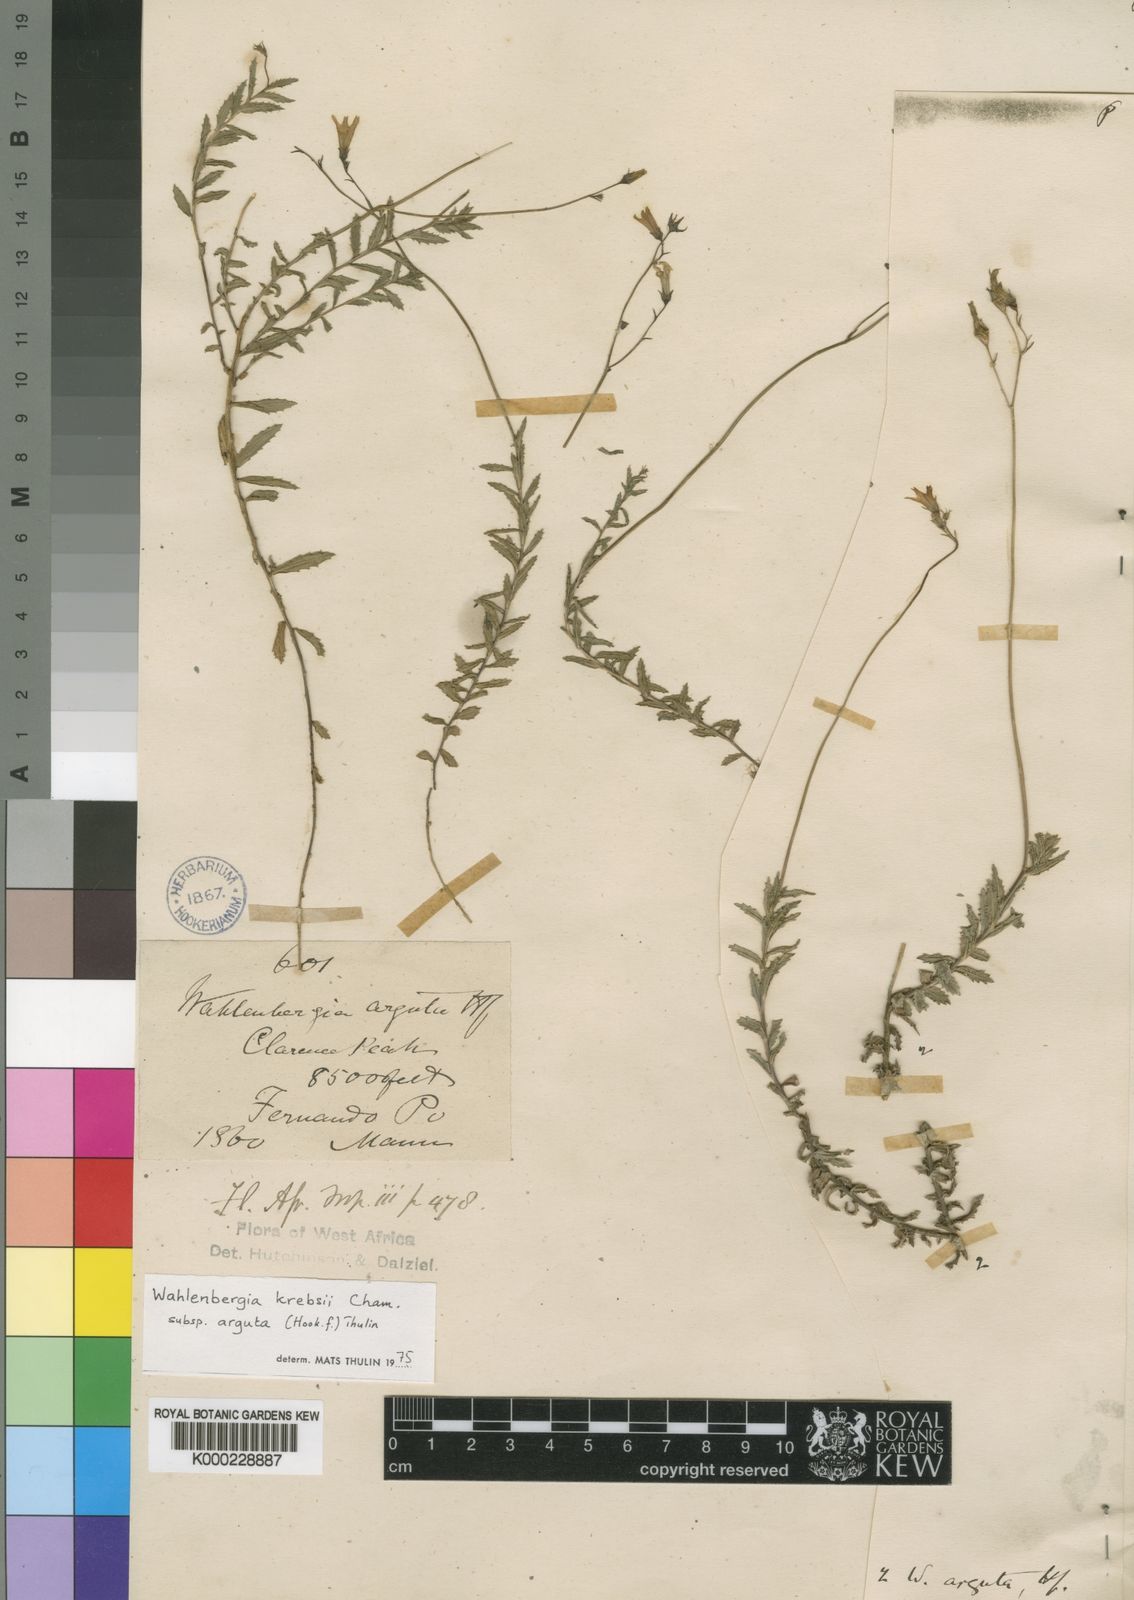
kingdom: Plantae
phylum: Tracheophyta
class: Magnoliopsida
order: Asterales
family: Campanulaceae
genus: Wahlenbergia
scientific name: Wahlenbergia krebsii
